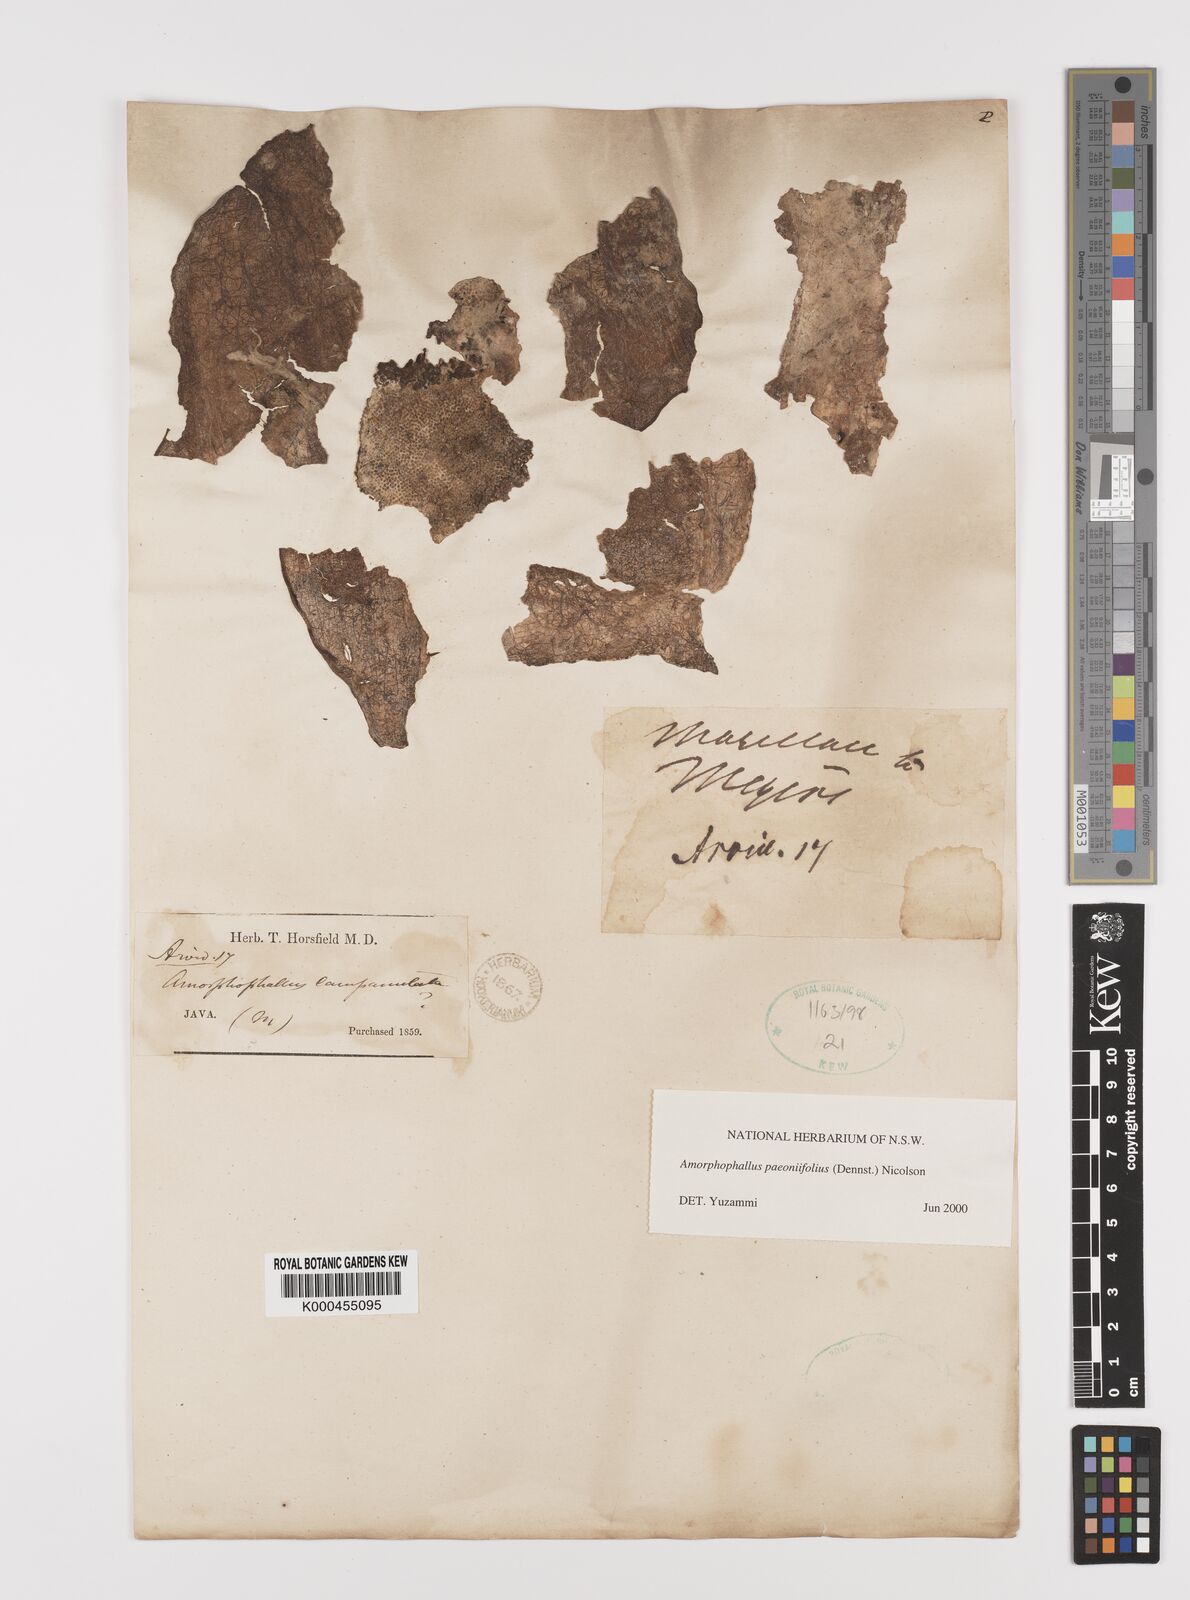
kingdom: Plantae
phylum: Tracheophyta
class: Liliopsida
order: Alismatales
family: Araceae
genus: Amorphophallus
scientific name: Amorphophallus paeoniifolius
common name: Telinga-potato
